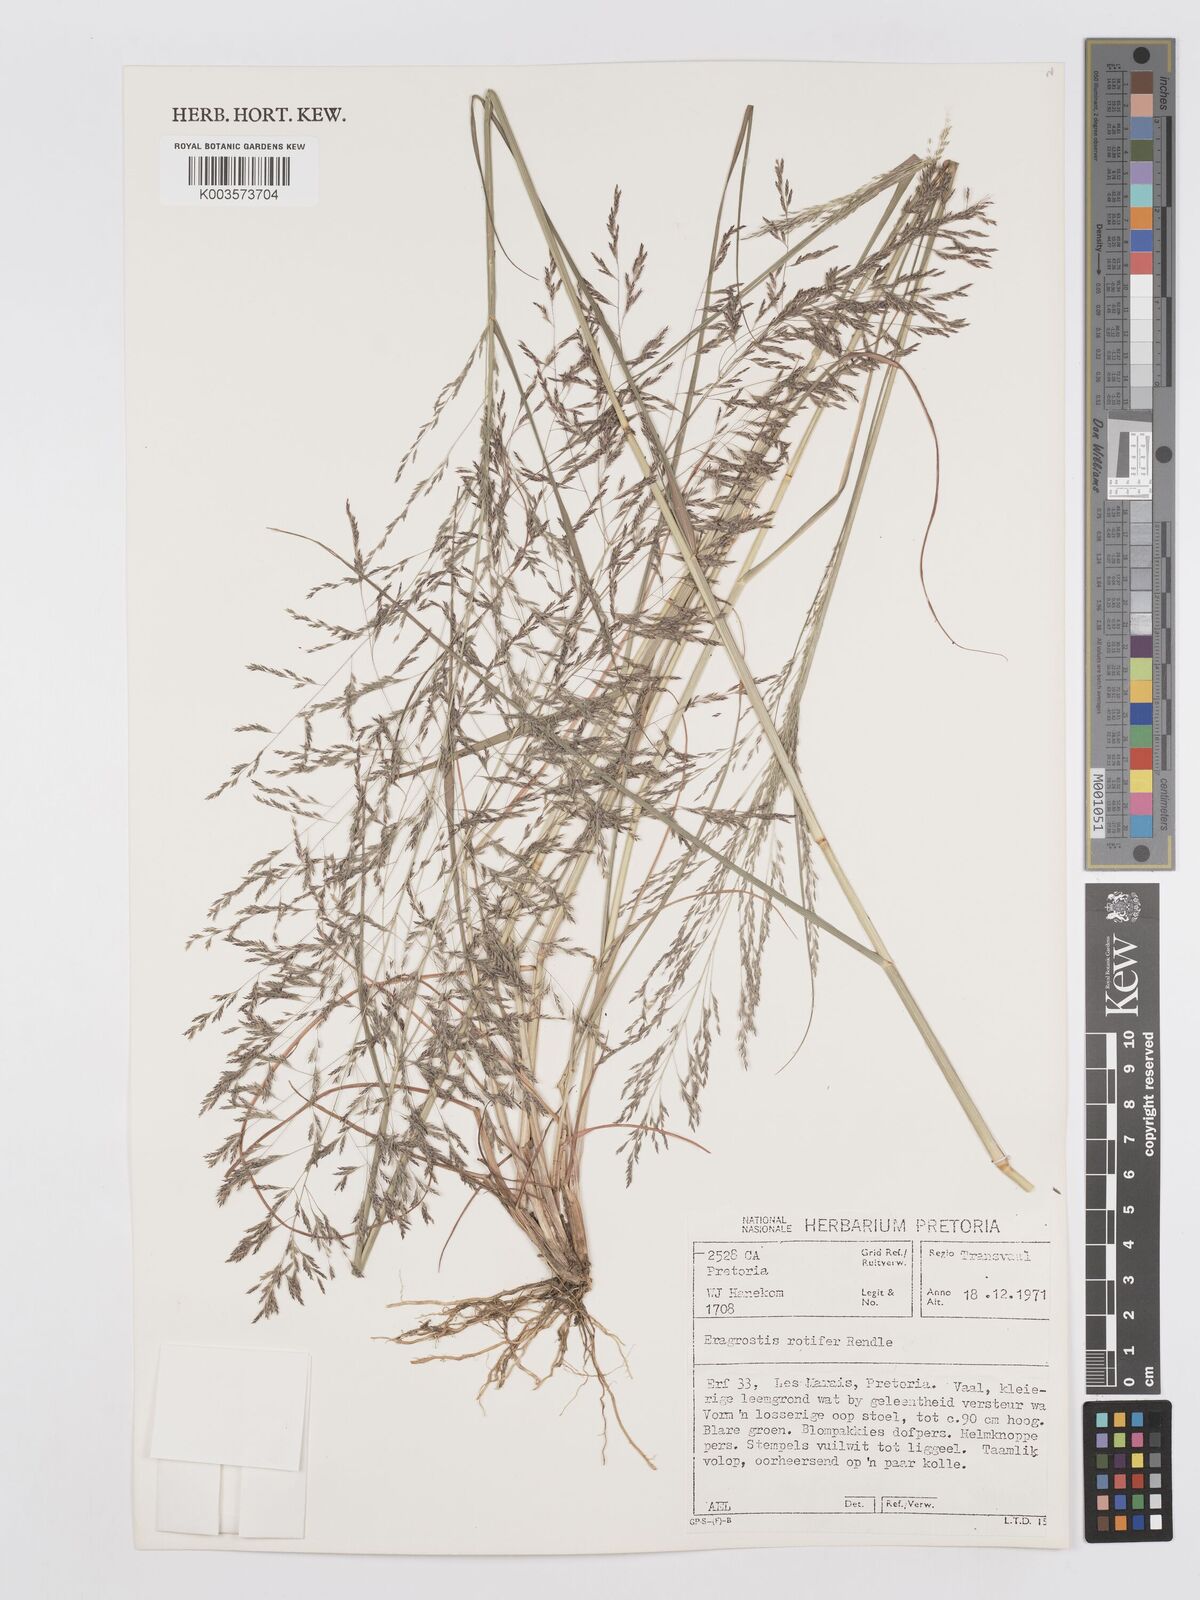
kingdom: Plantae
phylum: Tracheophyta
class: Liliopsida
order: Poales
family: Poaceae
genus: Eragrostis
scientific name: Eragrostis rotifer
